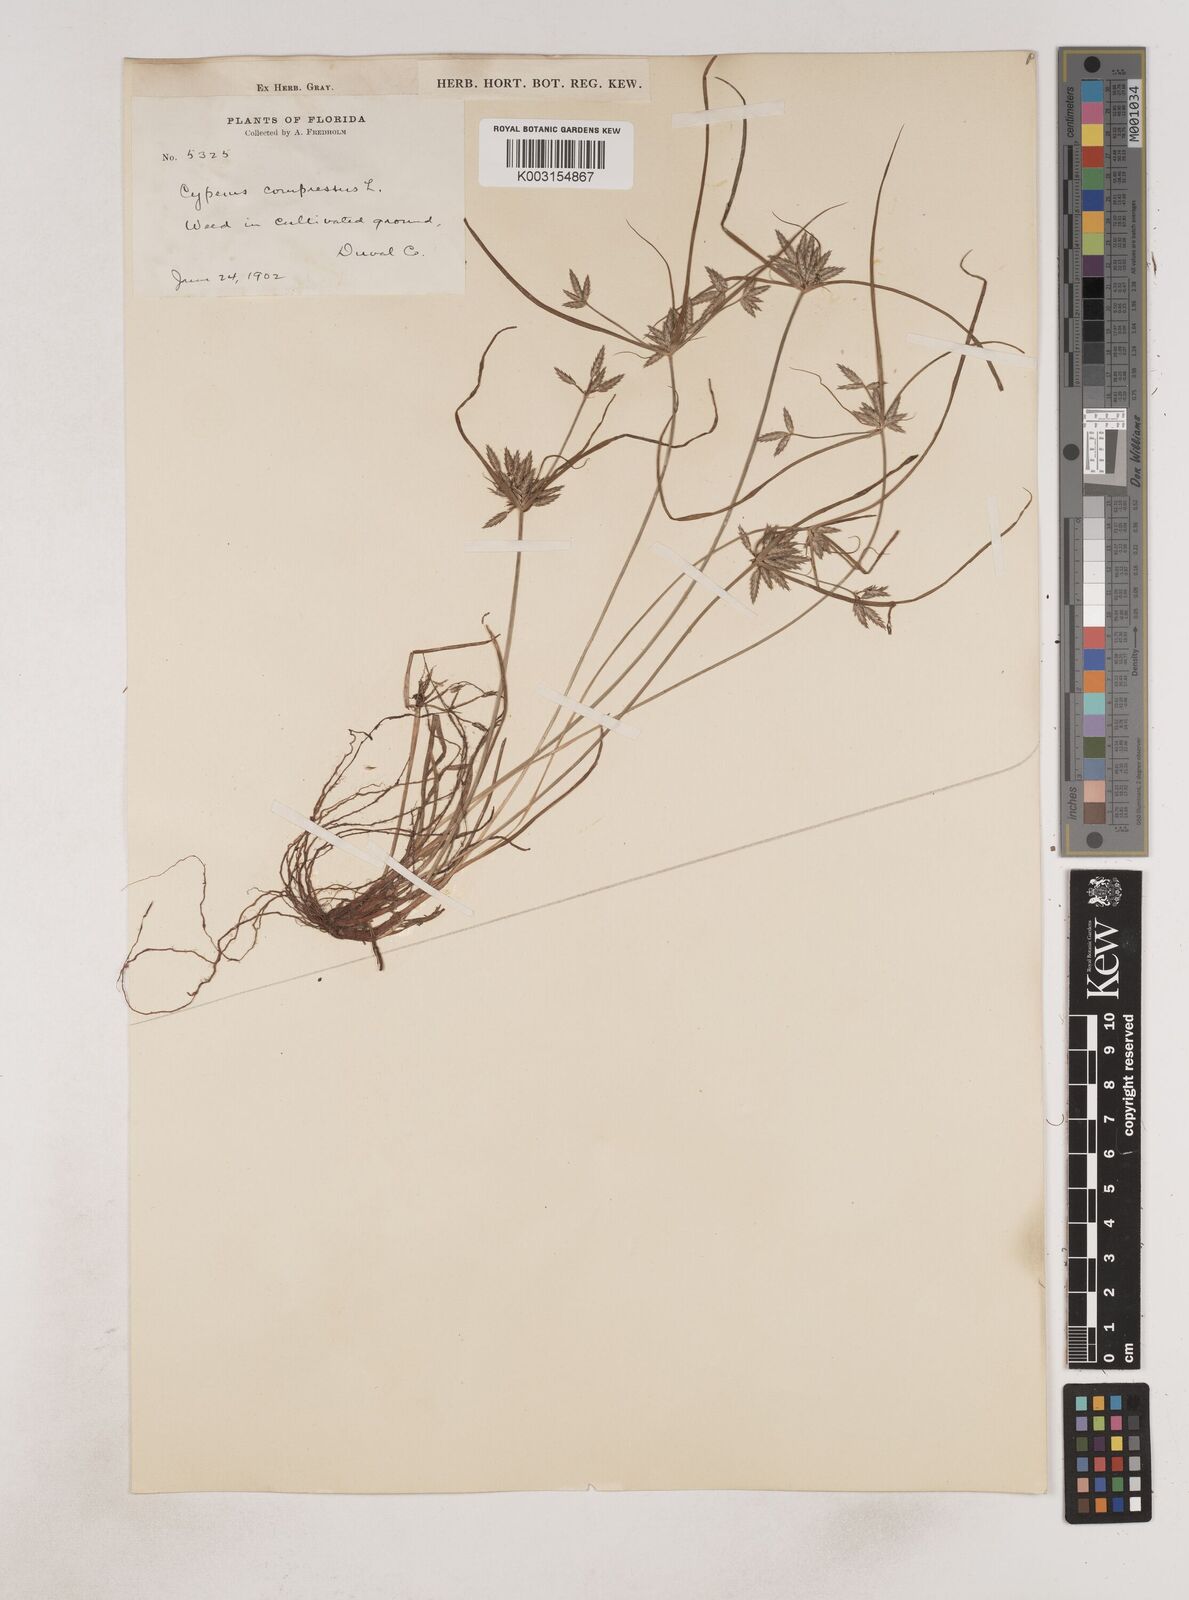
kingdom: Plantae
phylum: Tracheophyta
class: Liliopsida
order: Poales
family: Cyperaceae
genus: Cyperus
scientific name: Cyperus compressus
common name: Poorland flatsedge
